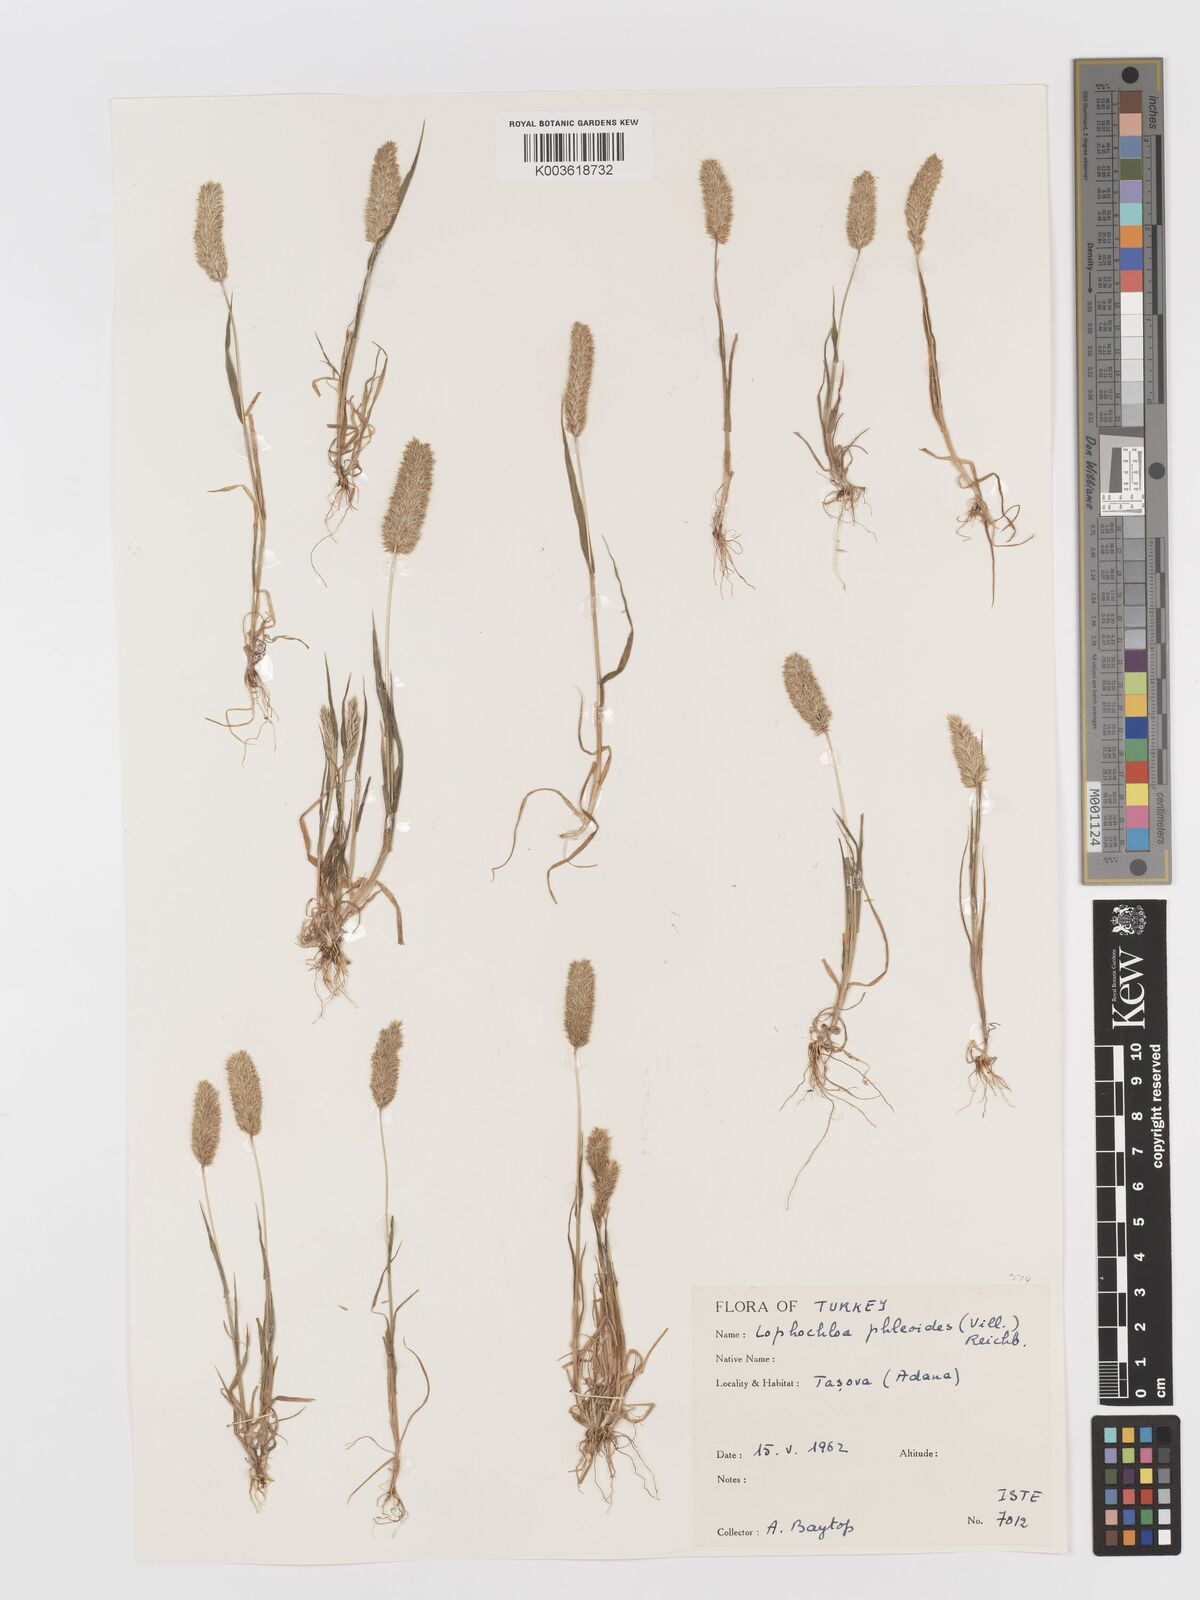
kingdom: Plantae
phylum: Tracheophyta
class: Liliopsida
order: Poales
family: Poaceae
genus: Rostraria
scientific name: Rostraria cristata
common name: Mediterranean hair-grass
